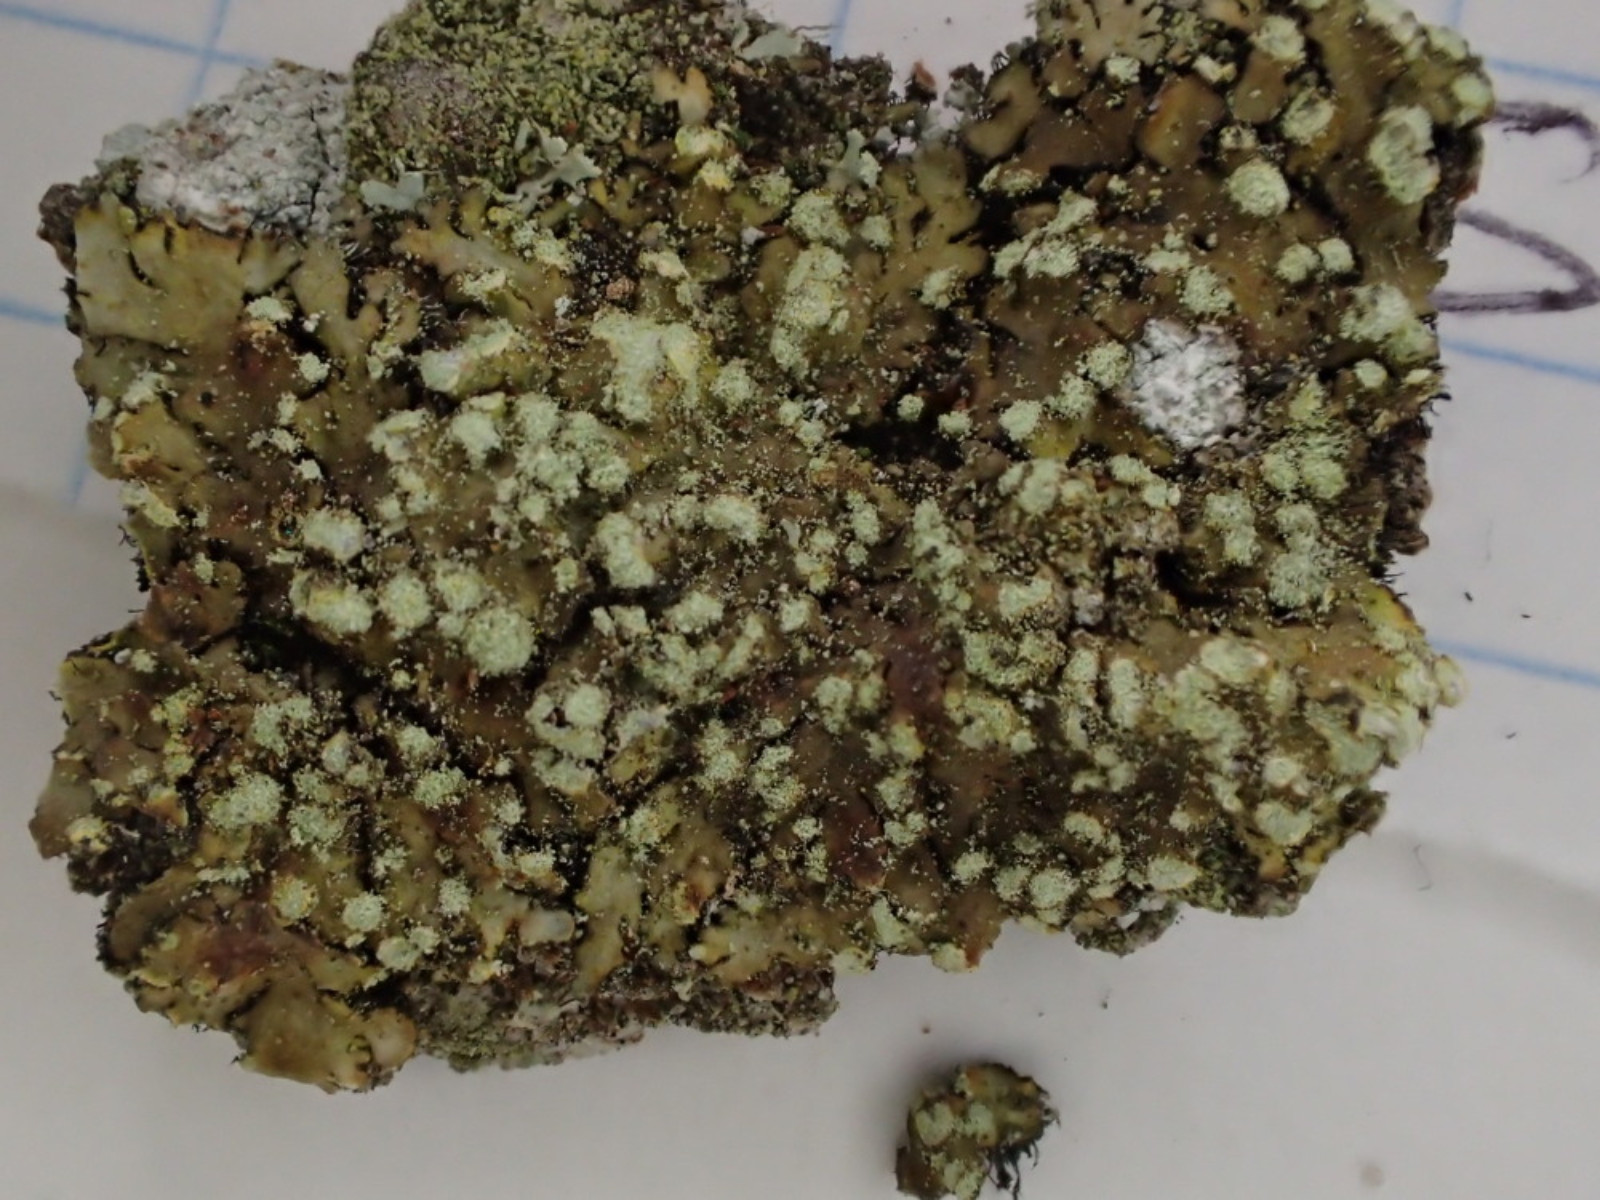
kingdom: Fungi
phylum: Ascomycota
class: Lecanoromycetes
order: Caliciales
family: Physciaceae
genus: Phaeophyscia
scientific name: Phaeophyscia orbicularis
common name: grågrøn rosetlav
